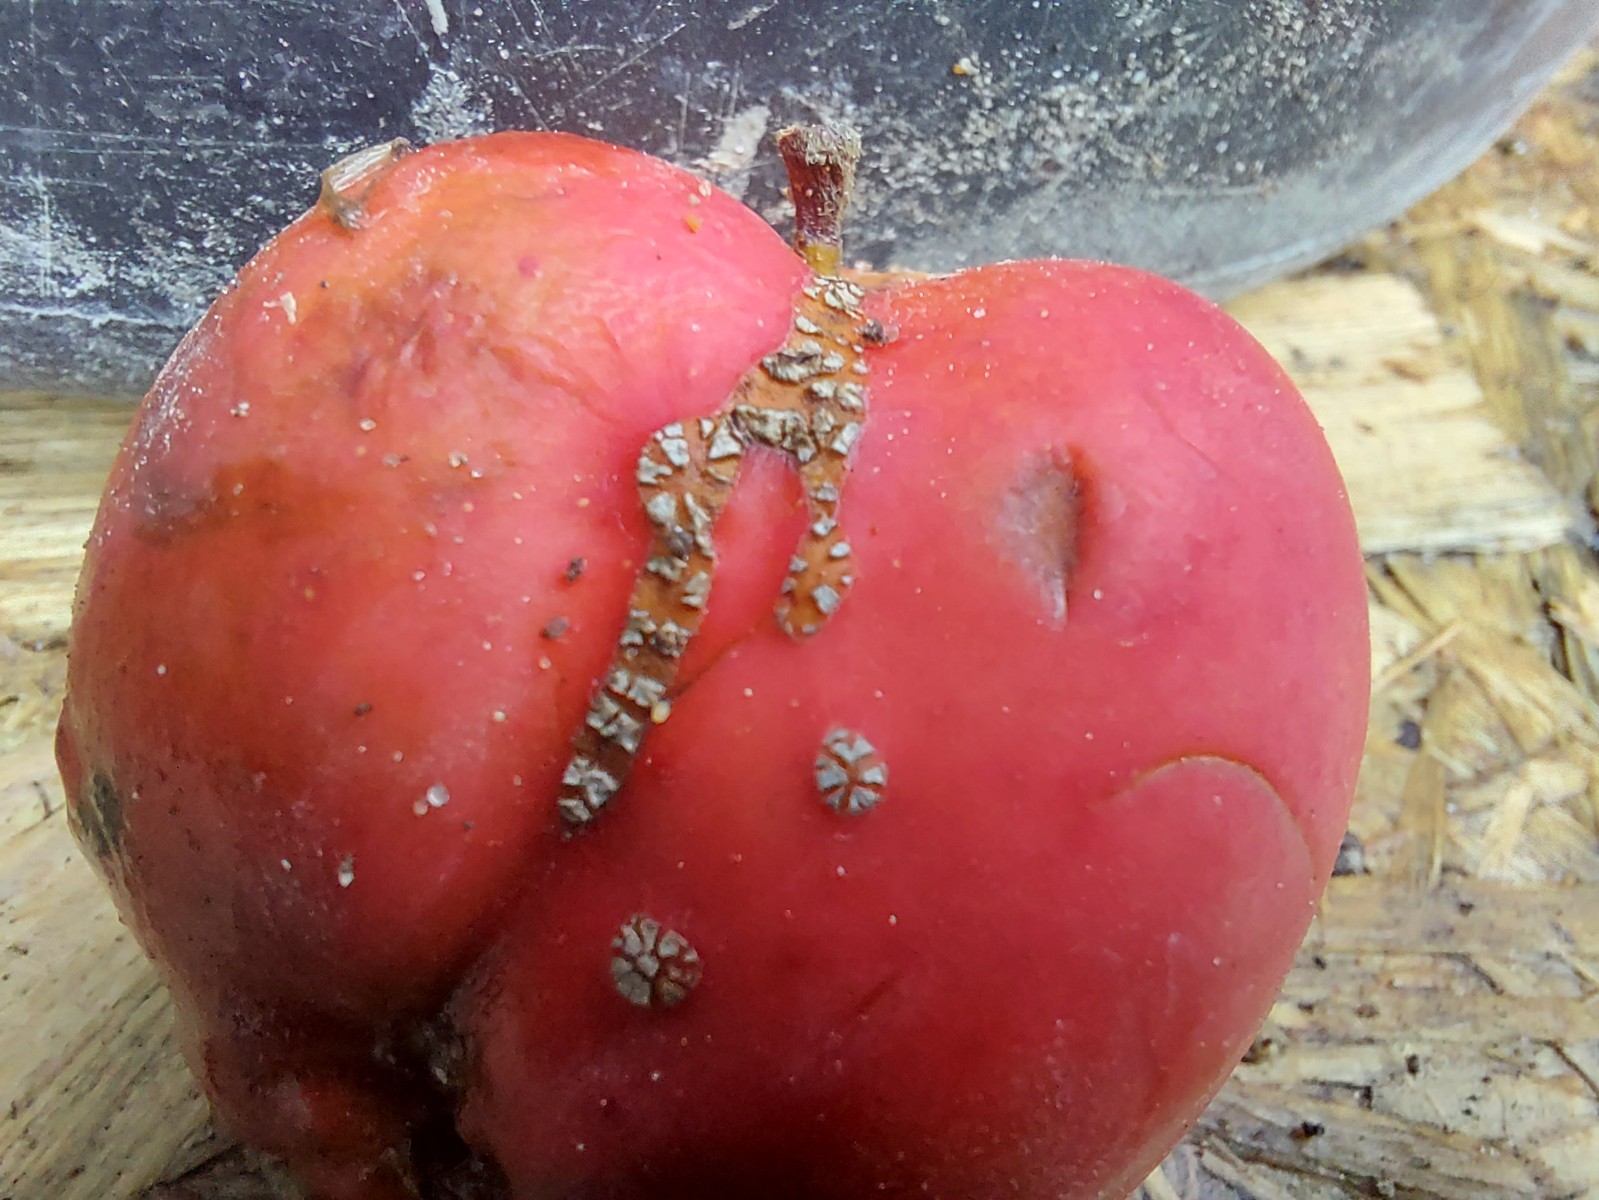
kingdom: Fungi
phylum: Ascomycota
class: Dothideomycetes
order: Venturiales
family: Venturiaceae
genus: Venturia
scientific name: Venturia inaequalis
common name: Apple scab
